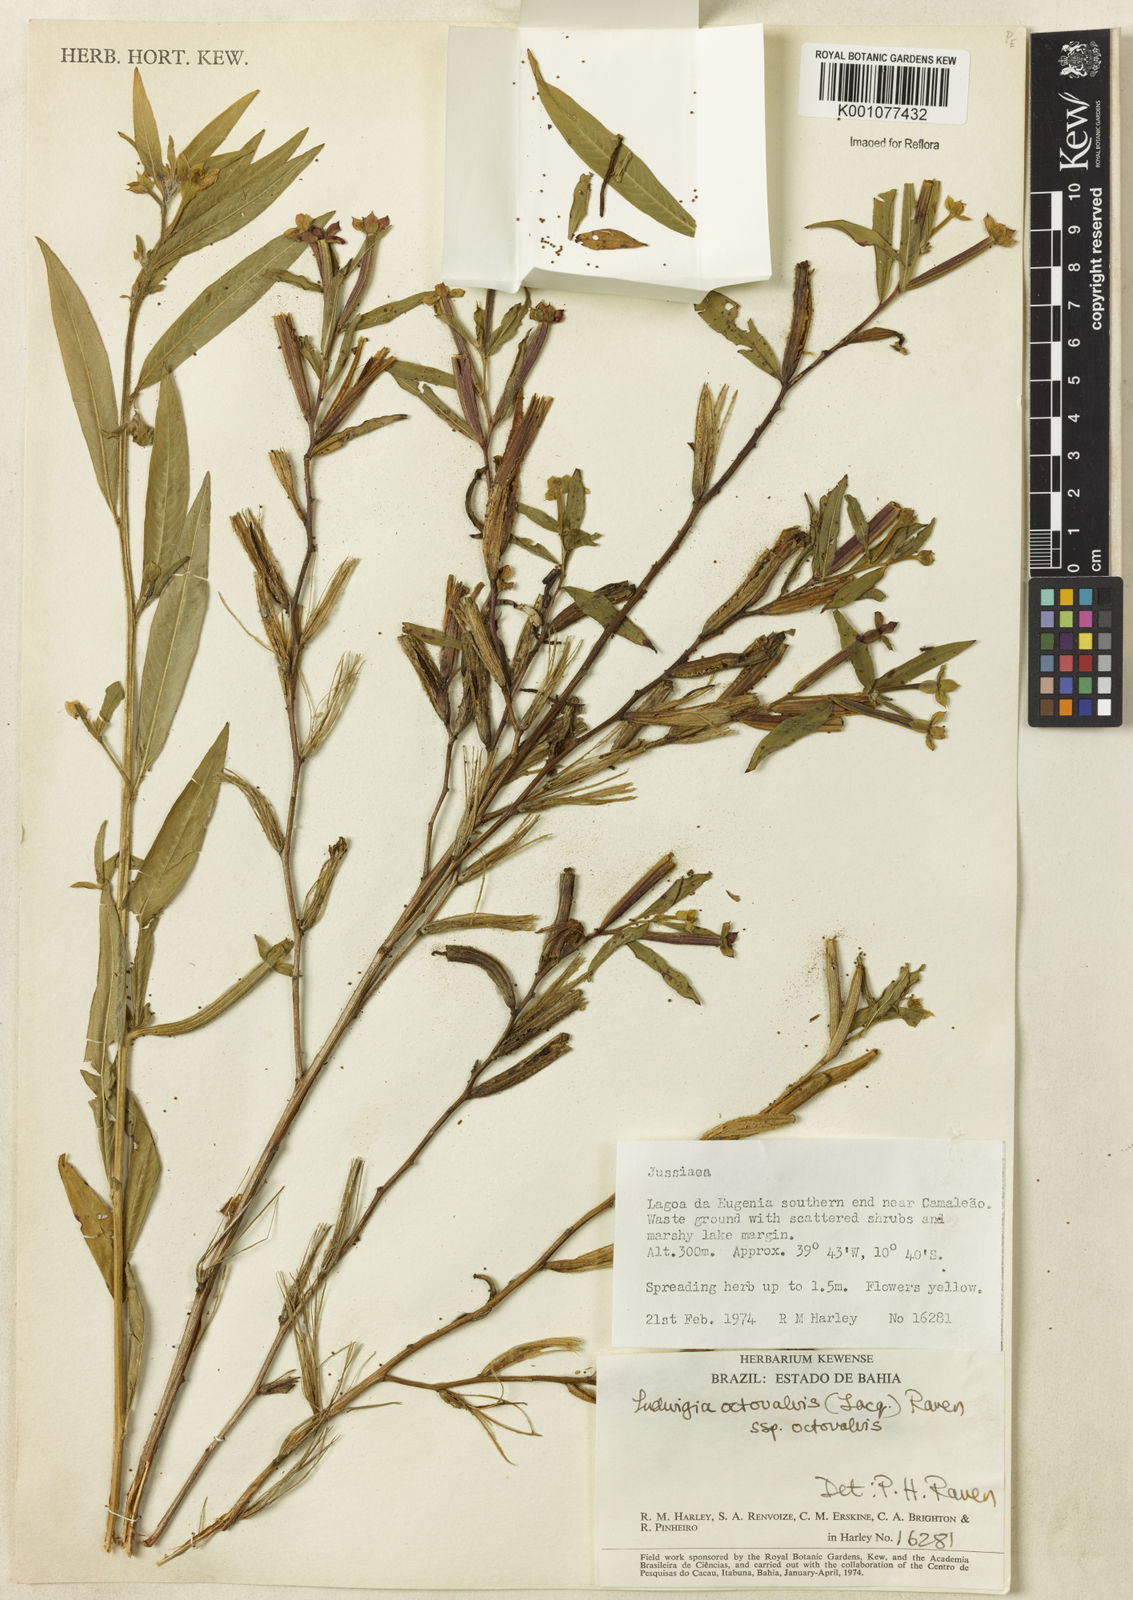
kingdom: Plantae
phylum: Tracheophyta
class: Magnoliopsida
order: Myrtales
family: Onagraceae
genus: Ludwigia
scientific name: Ludwigia octovalvis
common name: Water-primrose
